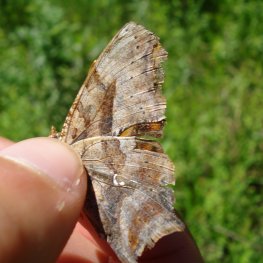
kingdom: Animalia
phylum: Arthropoda
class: Insecta
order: Lepidoptera
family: Nymphalidae
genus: Polygonia
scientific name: Polygonia interrogationis
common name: Question Mark
